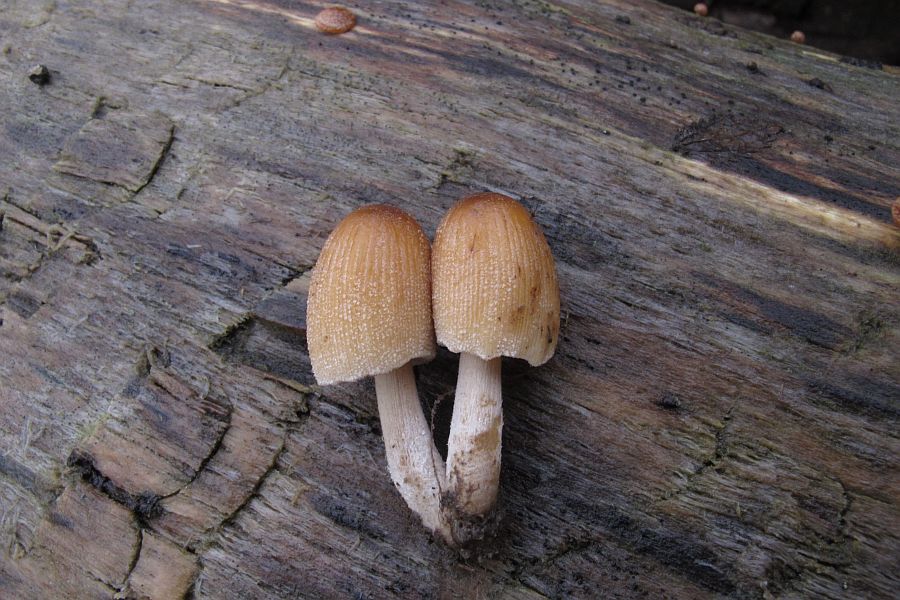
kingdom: Fungi
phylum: Basidiomycota
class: Agaricomycetes
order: Agaricales
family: Psathyrellaceae
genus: Coprinellus
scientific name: Coprinellus micaceus
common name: glimmer-blækhat
